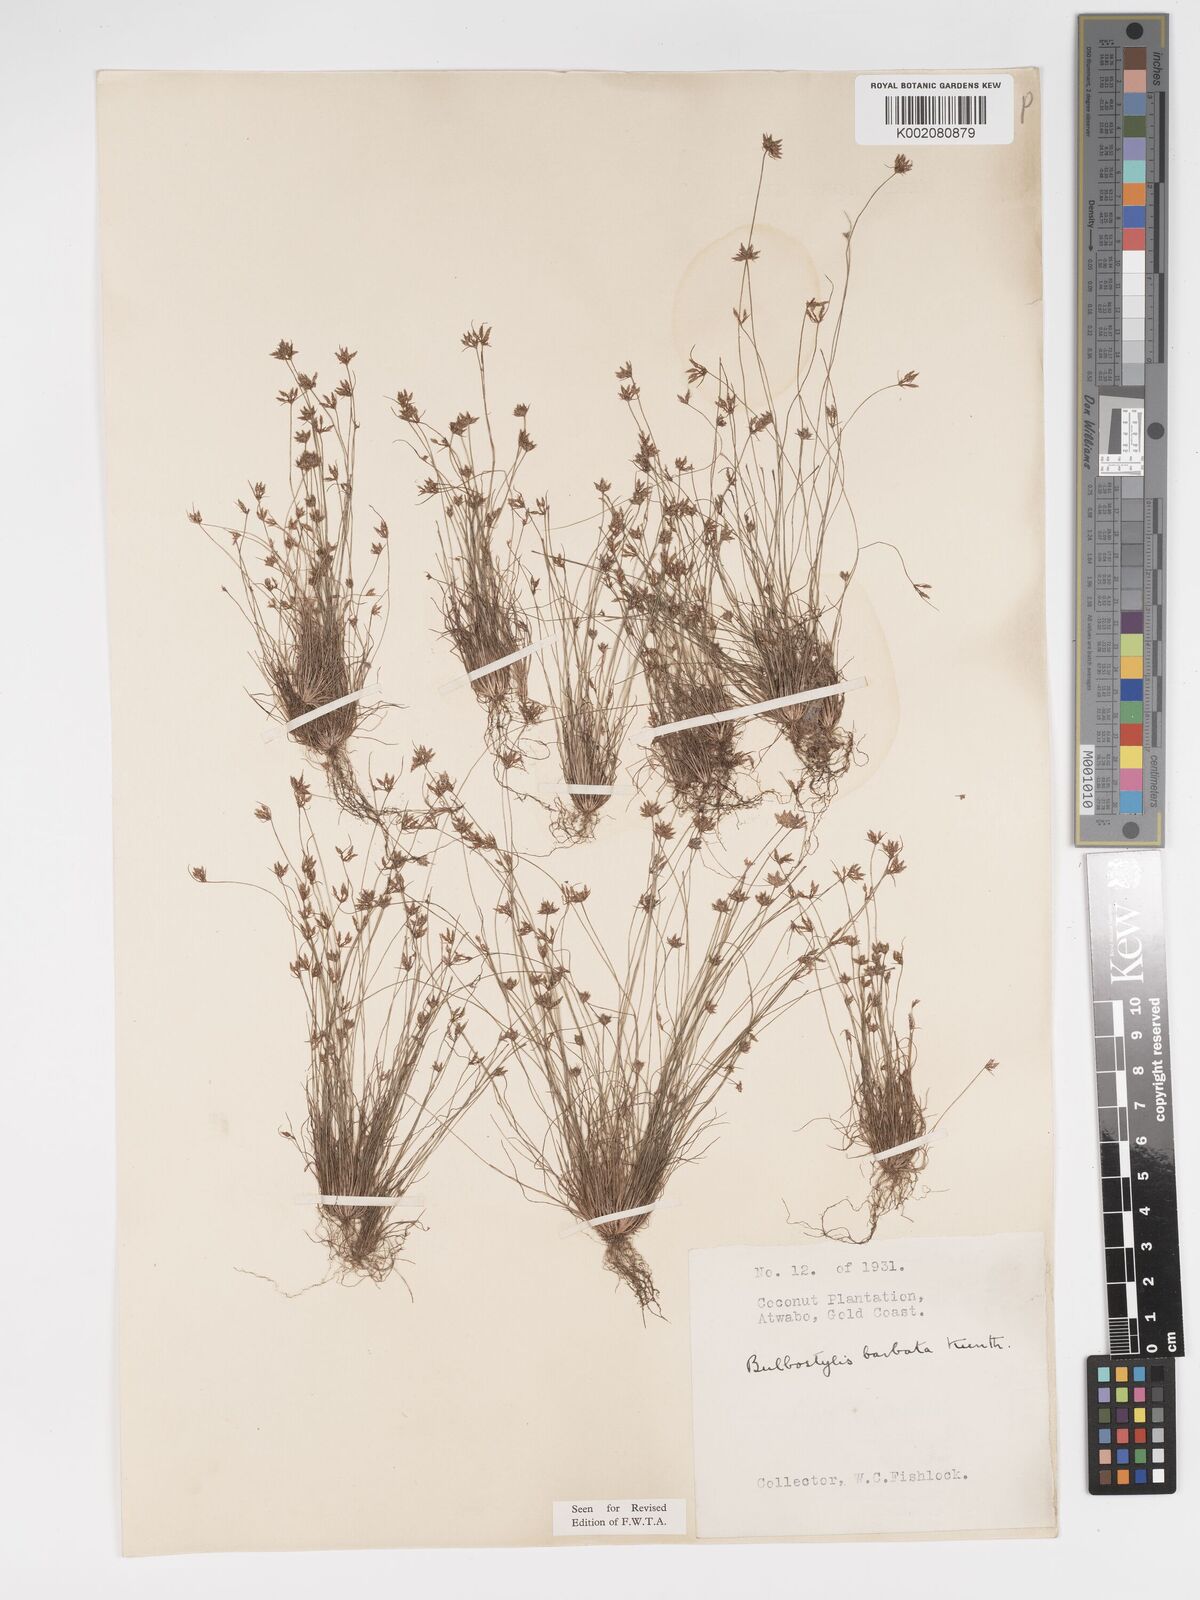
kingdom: Plantae
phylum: Tracheophyta
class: Liliopsida
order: Poales
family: Cyperaceae
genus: Bulbostylis
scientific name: Bulbostylis barbata
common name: Watergrass
